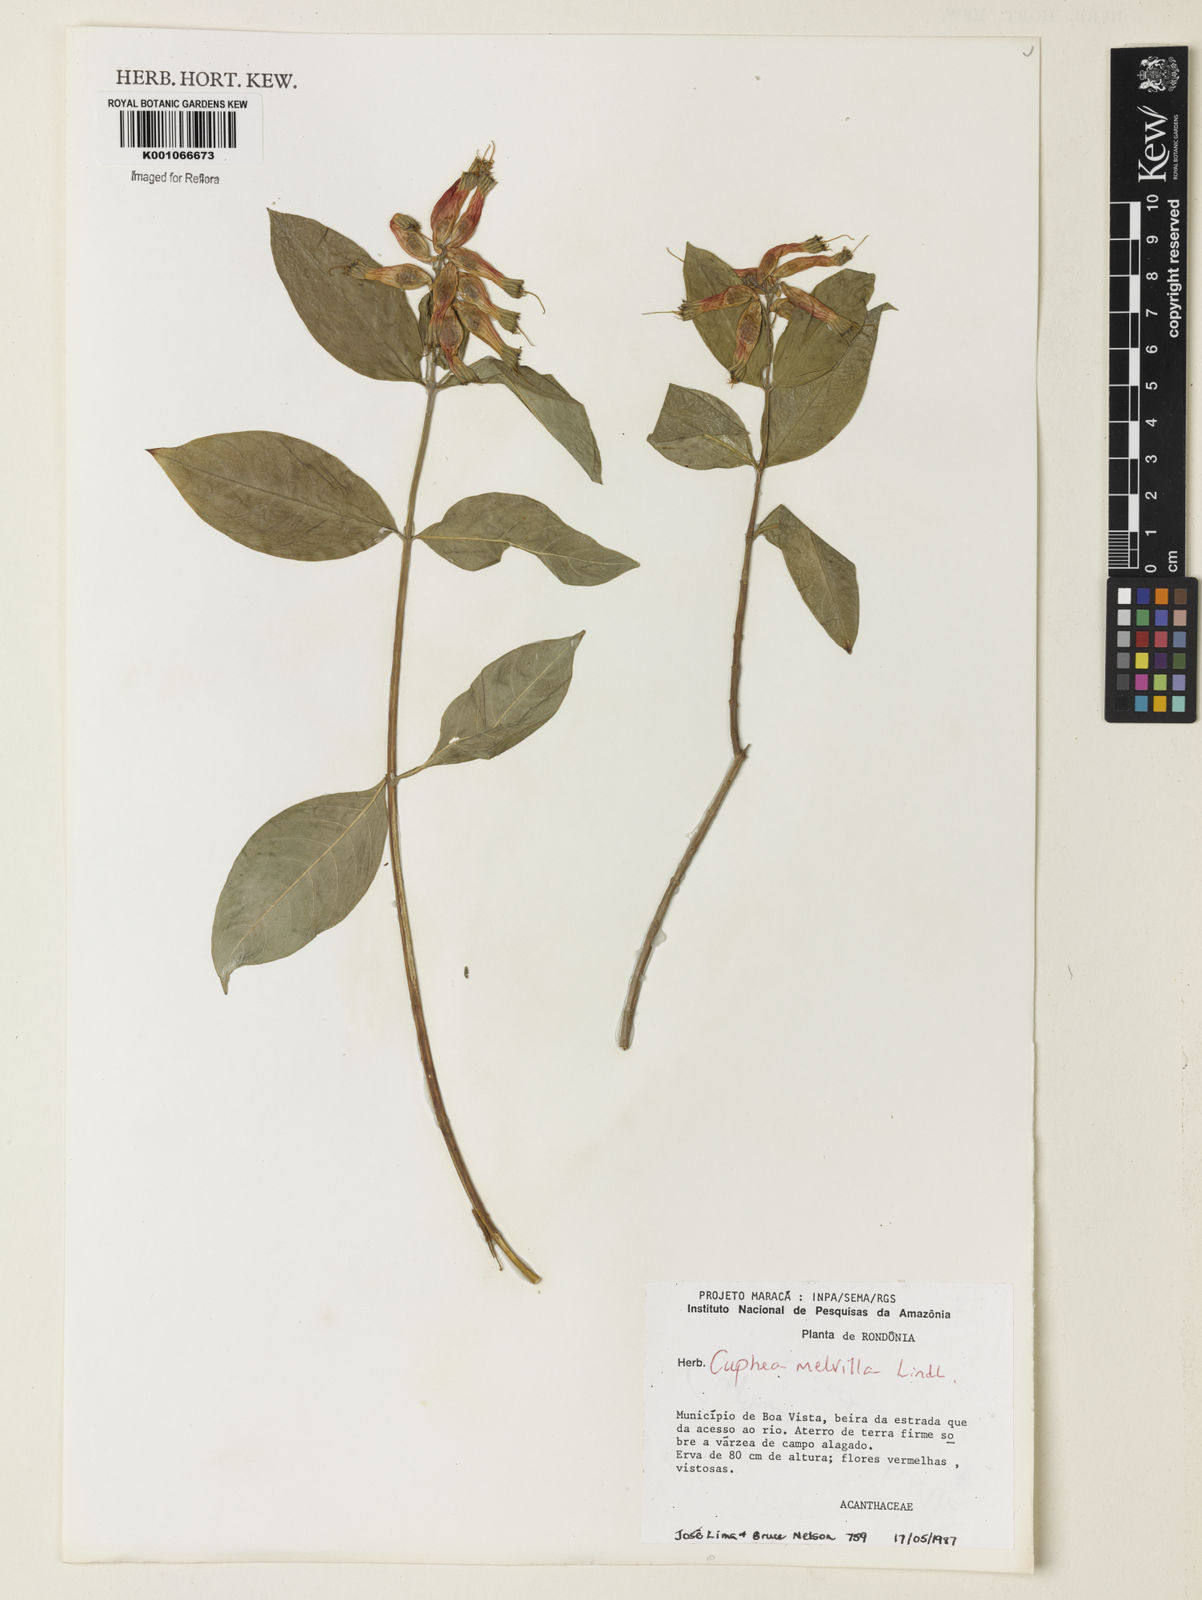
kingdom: Plantae
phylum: Tracheophyta
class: Magnoliopsida
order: Myrtales
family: Lythraceae
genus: Cuphea
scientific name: Cuphea melvilla
